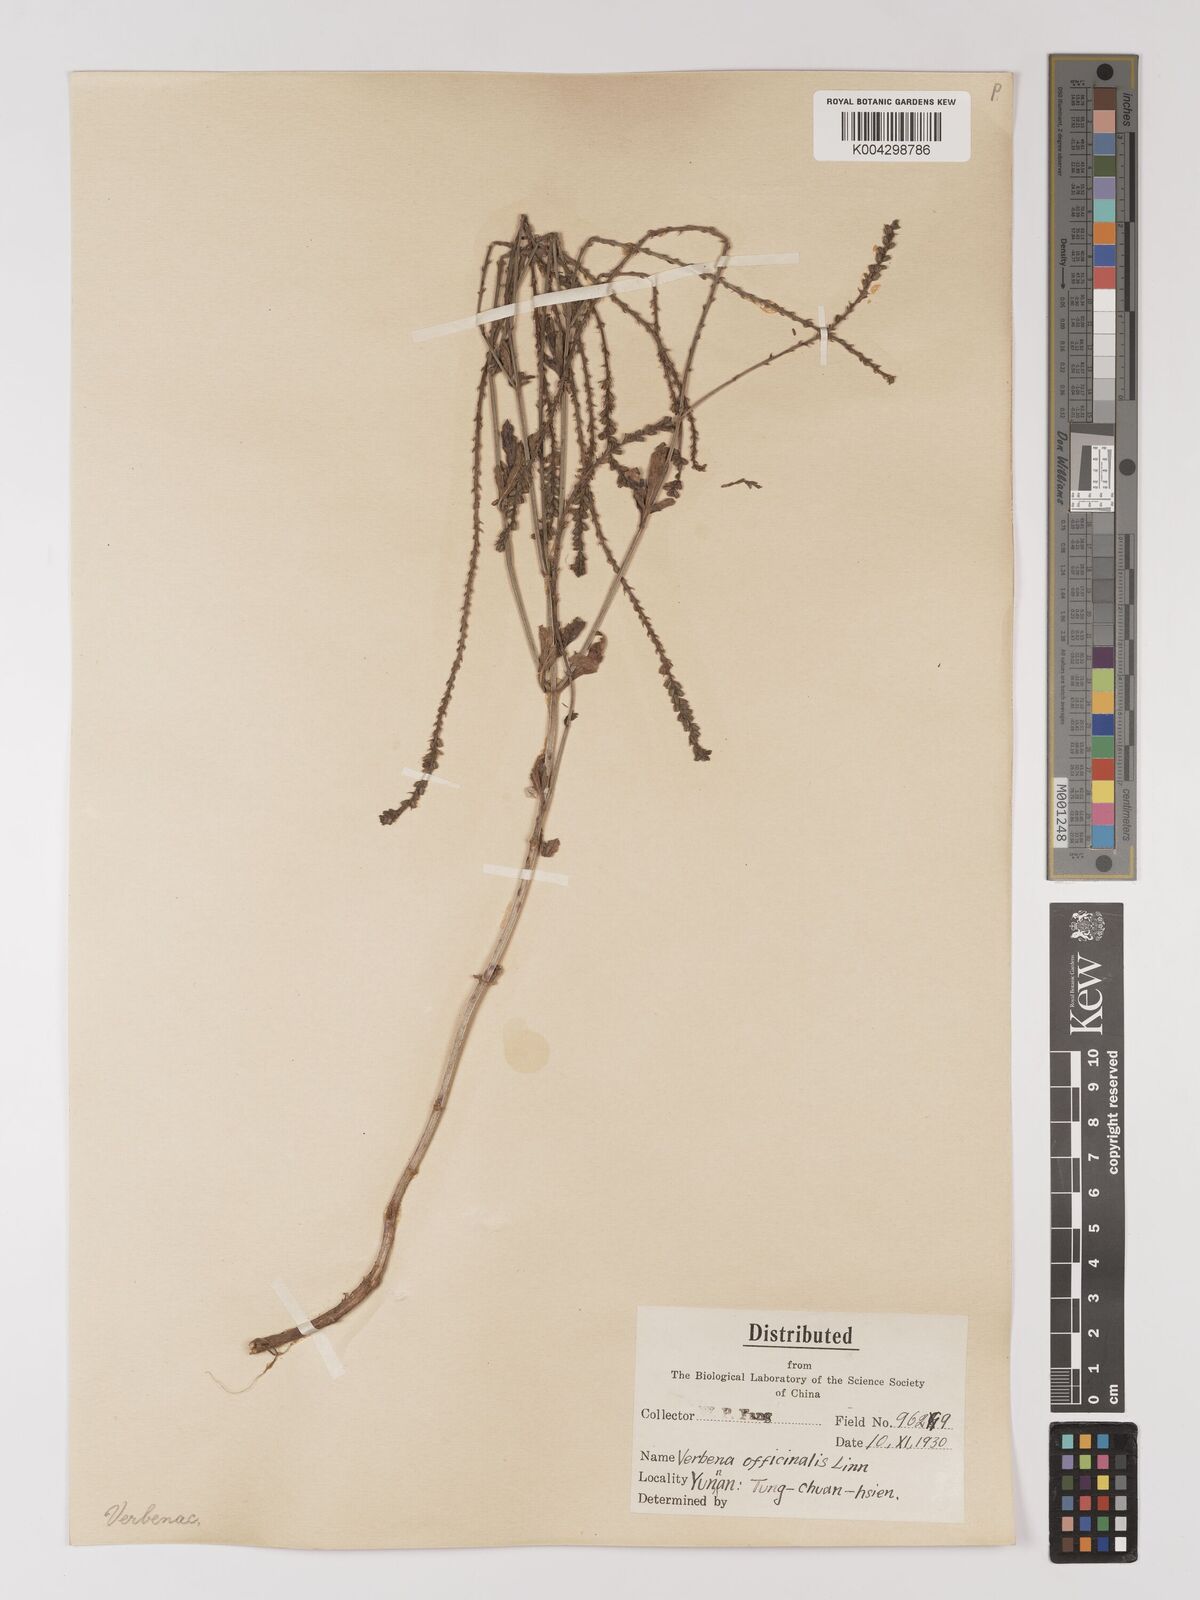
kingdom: Plantae
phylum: Tracheophyta
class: Magnoliopsida
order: Lamiales
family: Verbenaceae
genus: Verbena
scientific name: Verbena officinalis
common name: Vervain
